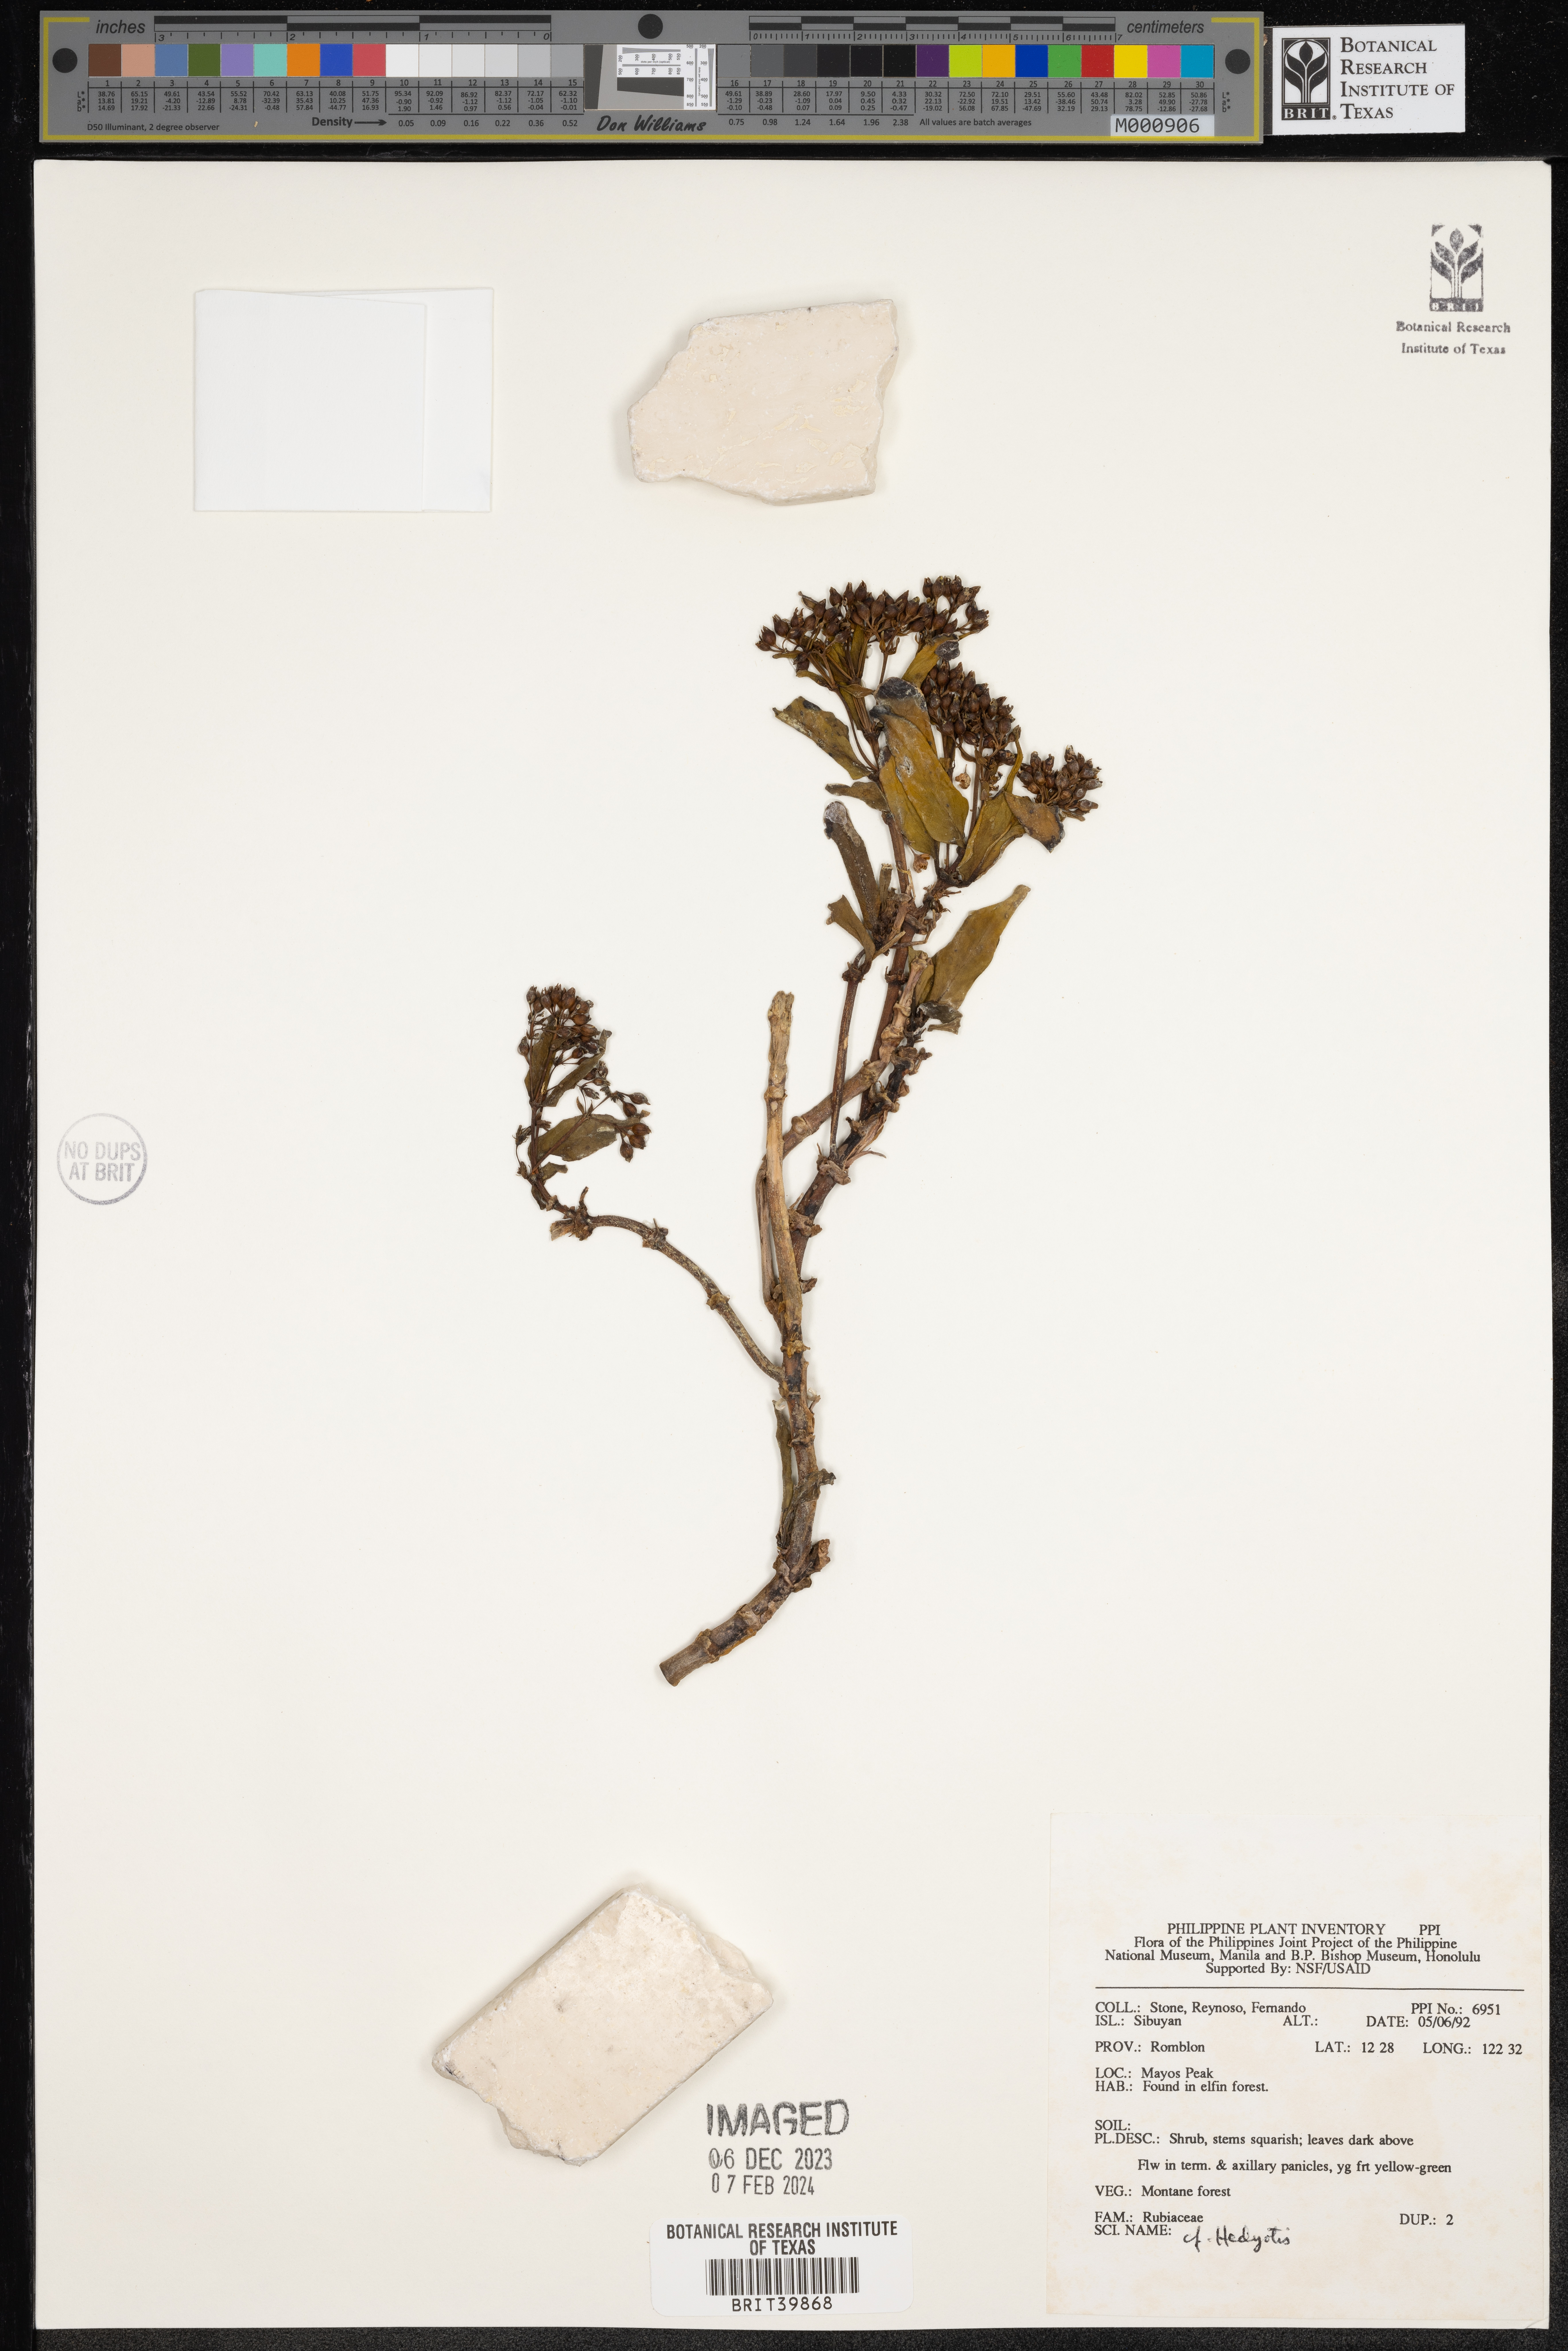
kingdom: Plantae
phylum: Tracheophyta
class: Magnoliopsida
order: Gentianales
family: Rubiaceae
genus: Hedyotis
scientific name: Hedyotis
